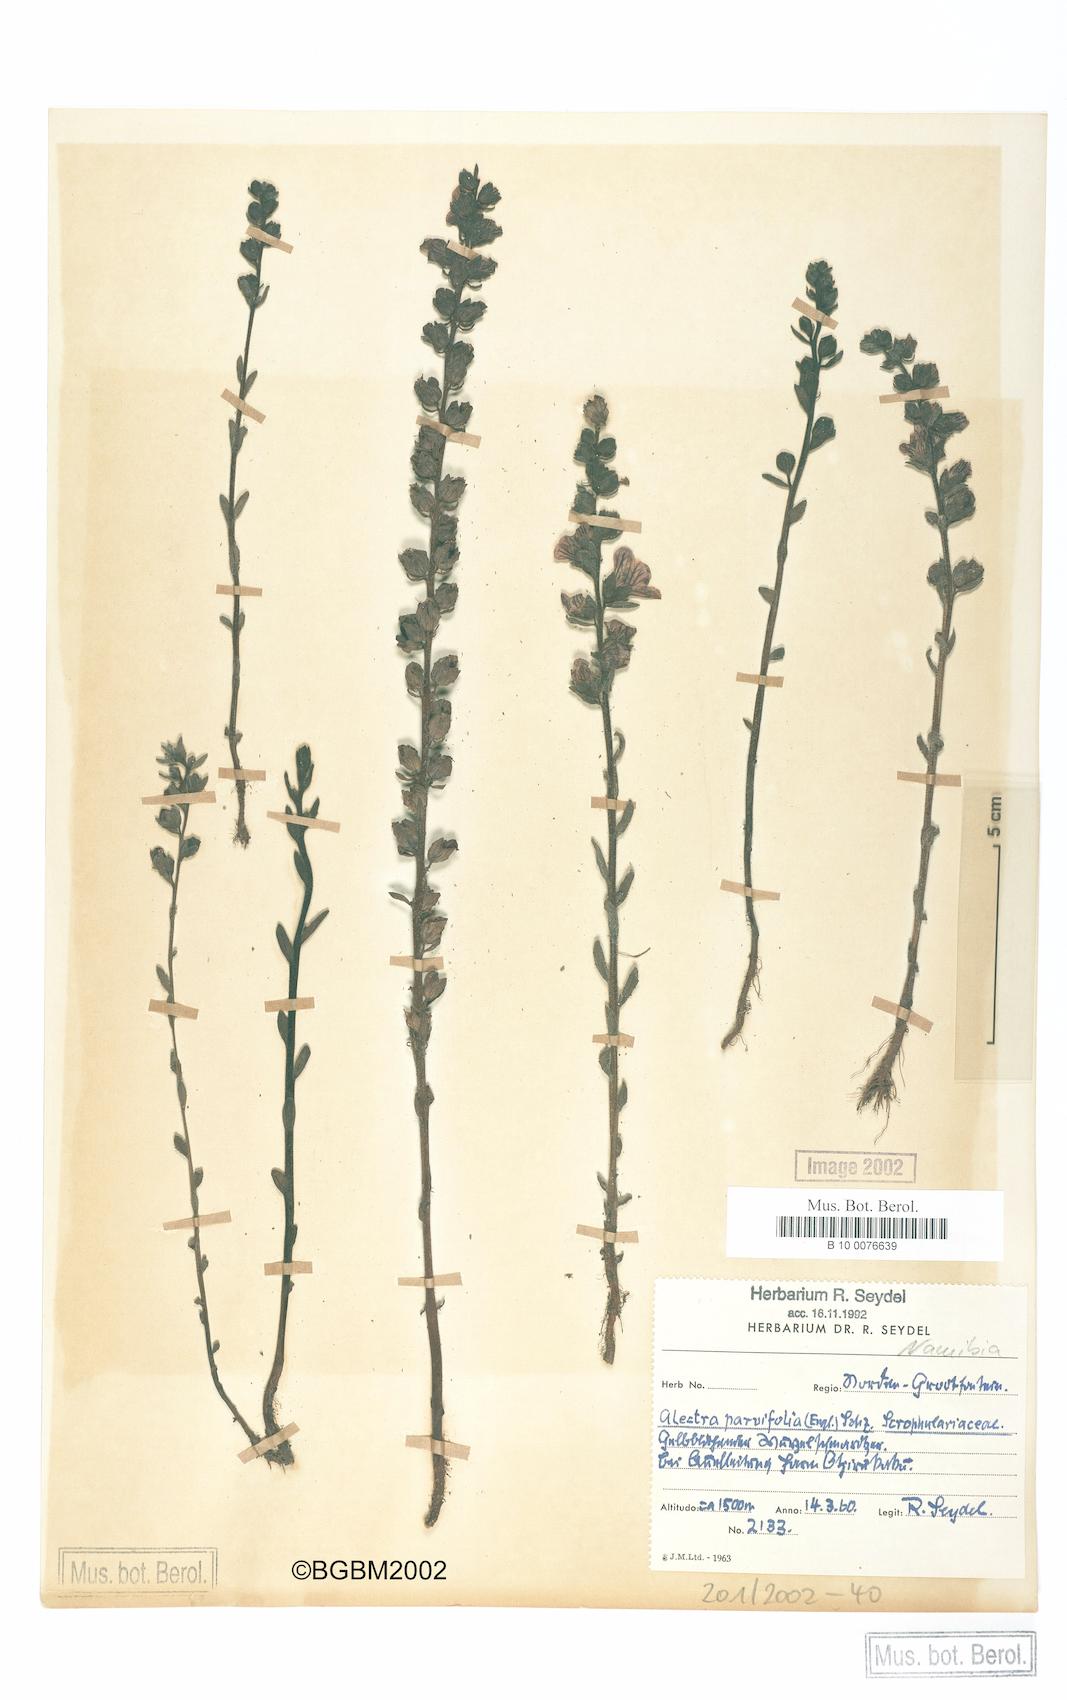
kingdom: Plantae
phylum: Tracheophyta
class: Magnoliopsida
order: Lamiales
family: Orobanchaceae
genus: Alectra
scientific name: Alectra orobanchoides
